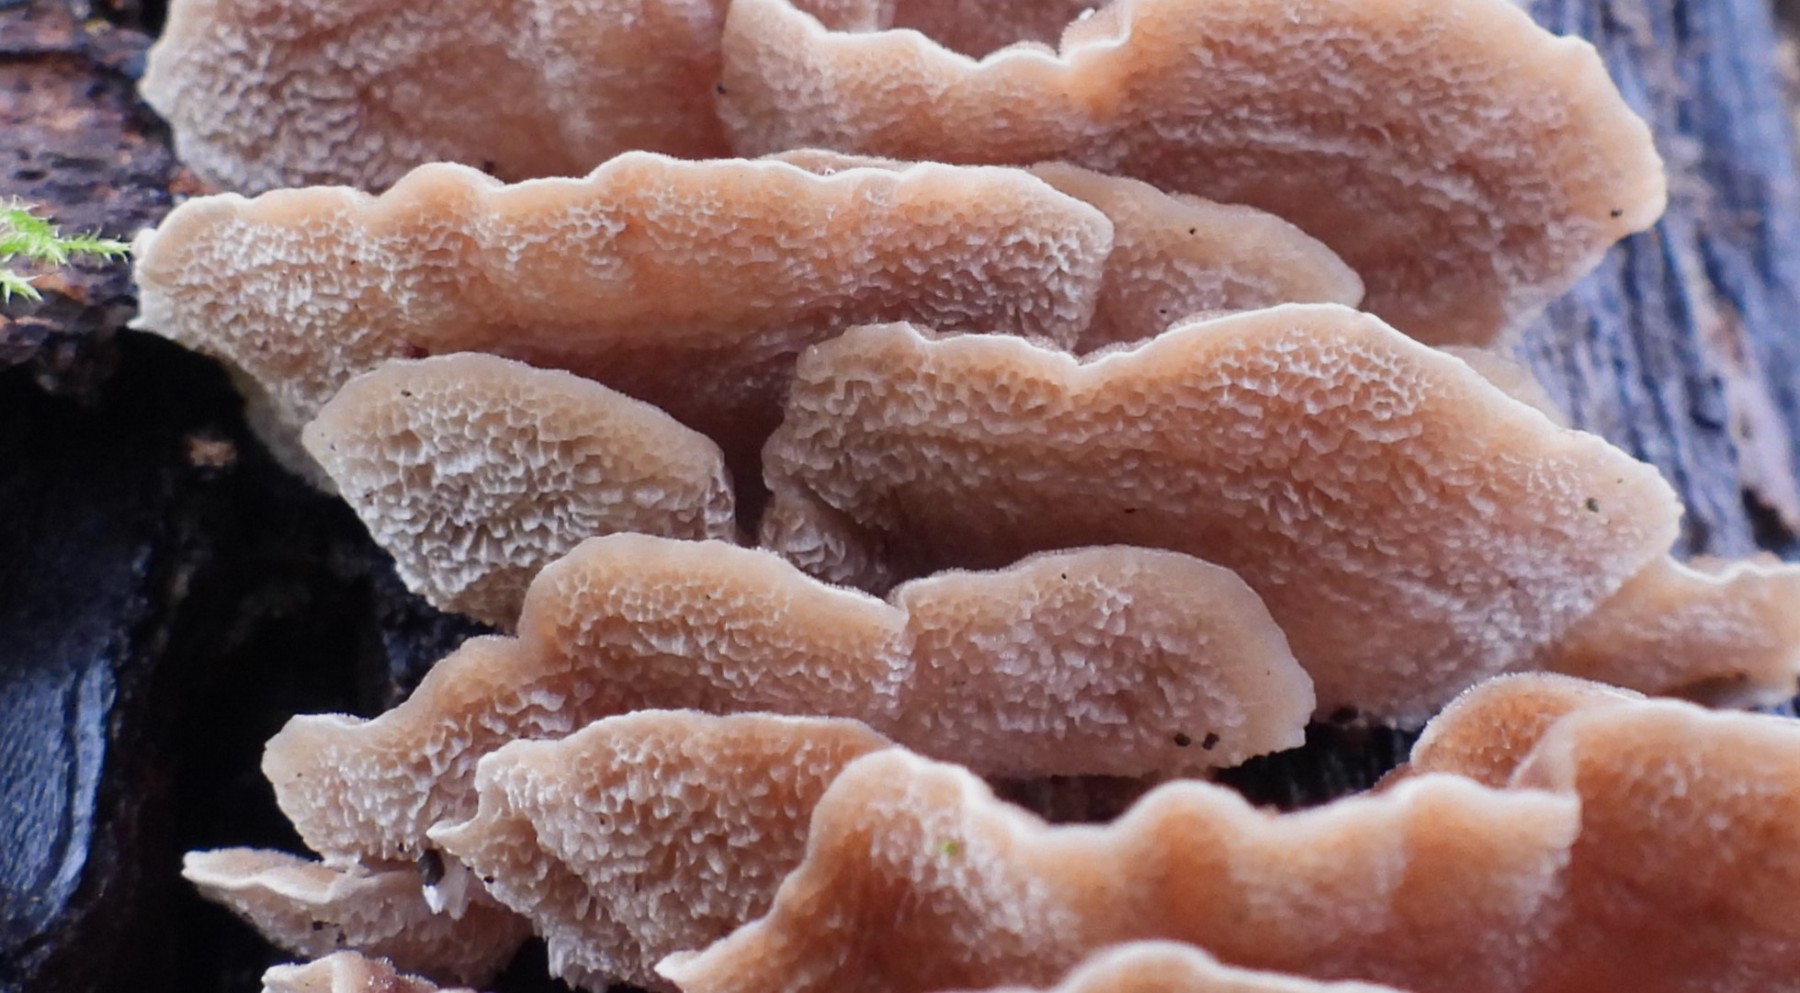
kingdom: Fungi
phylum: Basidiomycota
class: Agaricomycetes
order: Polyporales
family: Polyporaceae
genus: Trametes
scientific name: Trametes versicolor
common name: broget læderporesvamp
